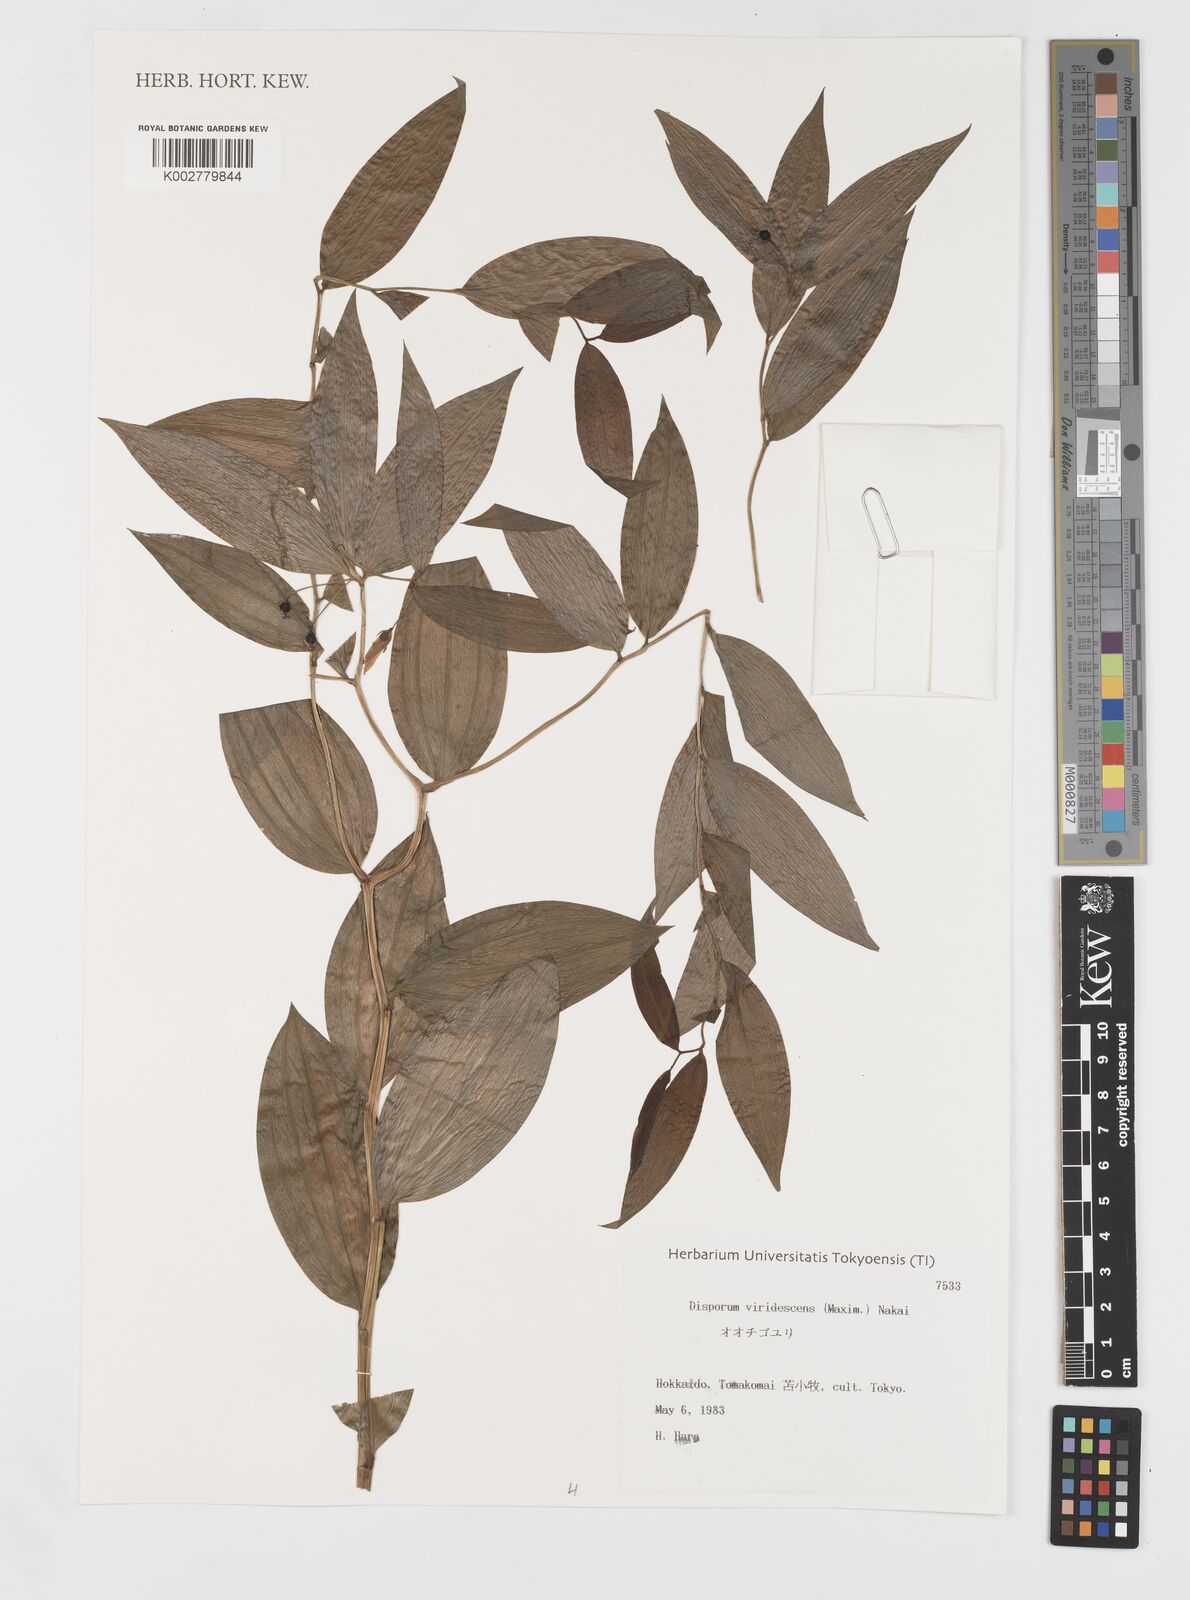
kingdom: Plantae
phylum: Tracheophyta
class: Liliopsida
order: Liliales
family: Colchicaceae
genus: Disporum
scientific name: Disporum viridescens
